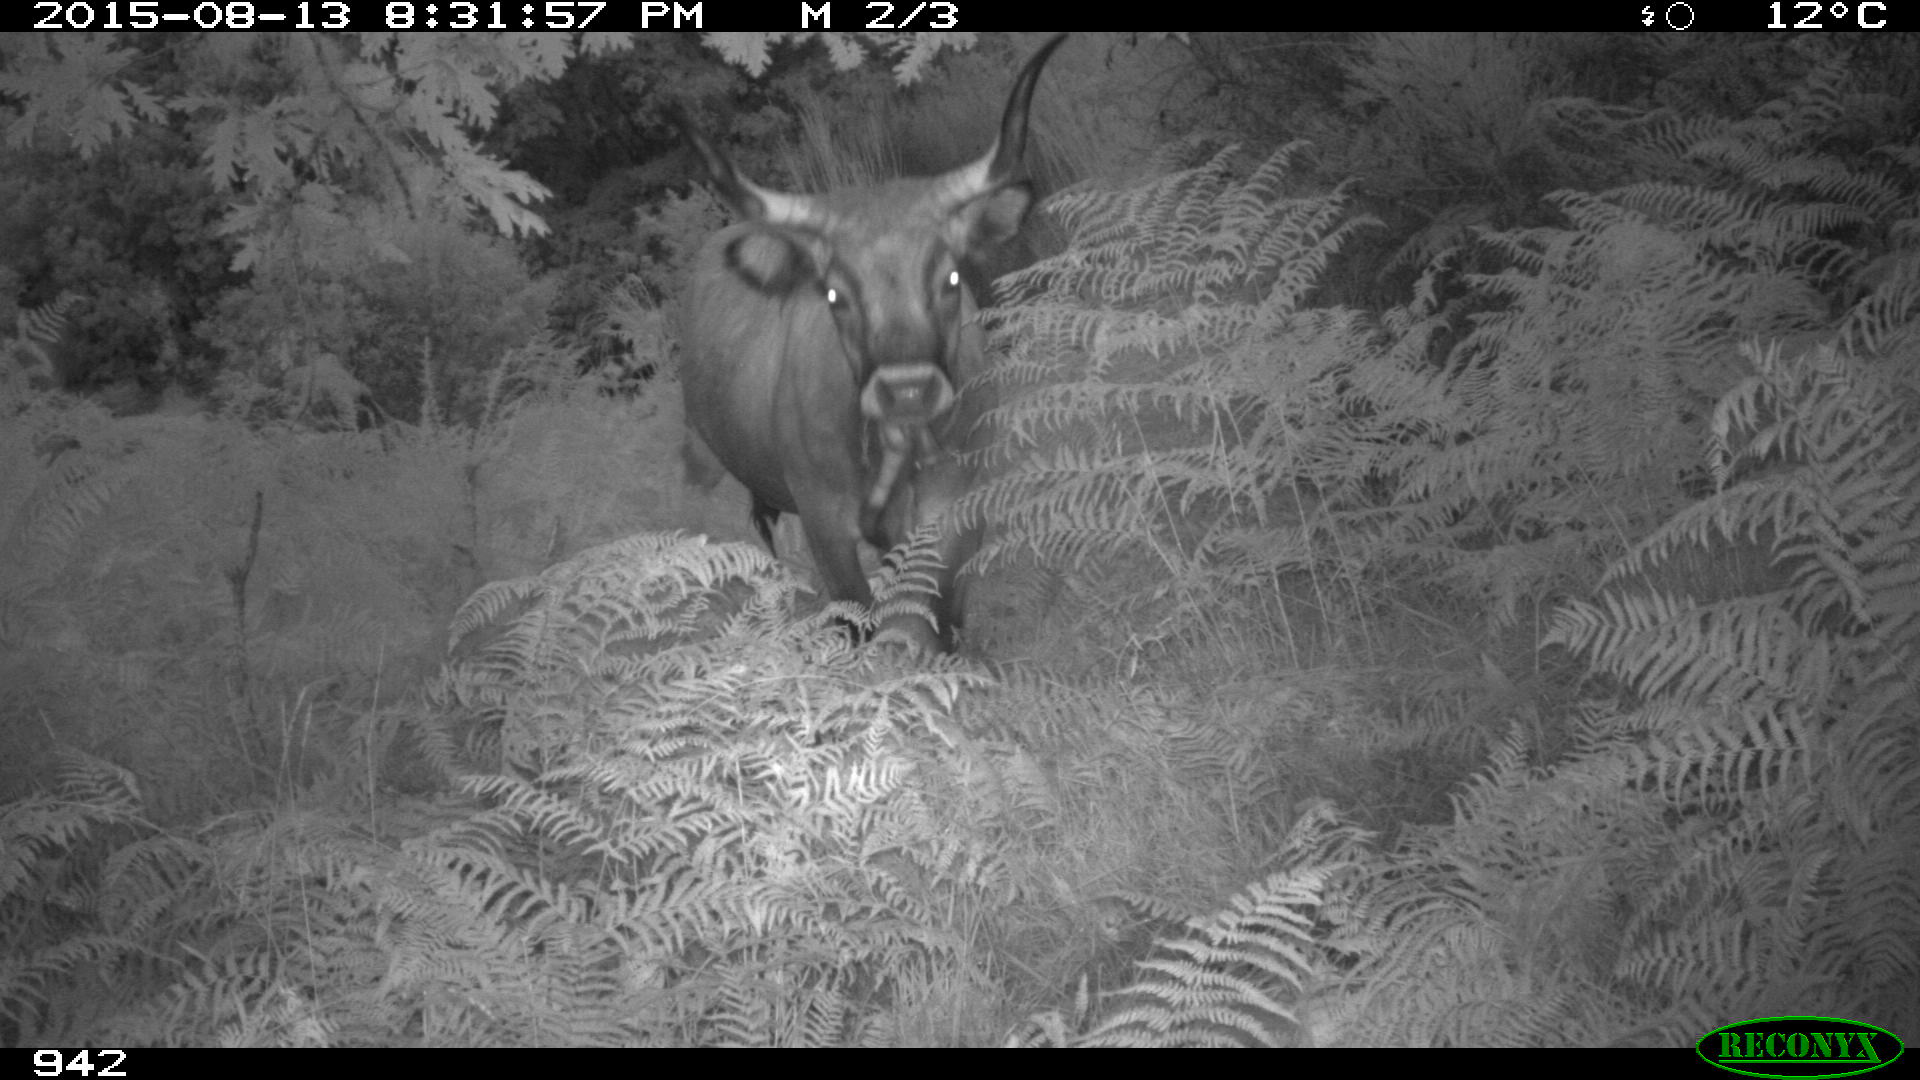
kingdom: Animalia
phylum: Chordata
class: Mammalia
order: Artiodactyla
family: Bovidae
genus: Bos
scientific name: Bos taurus
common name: Domesticated cattle
